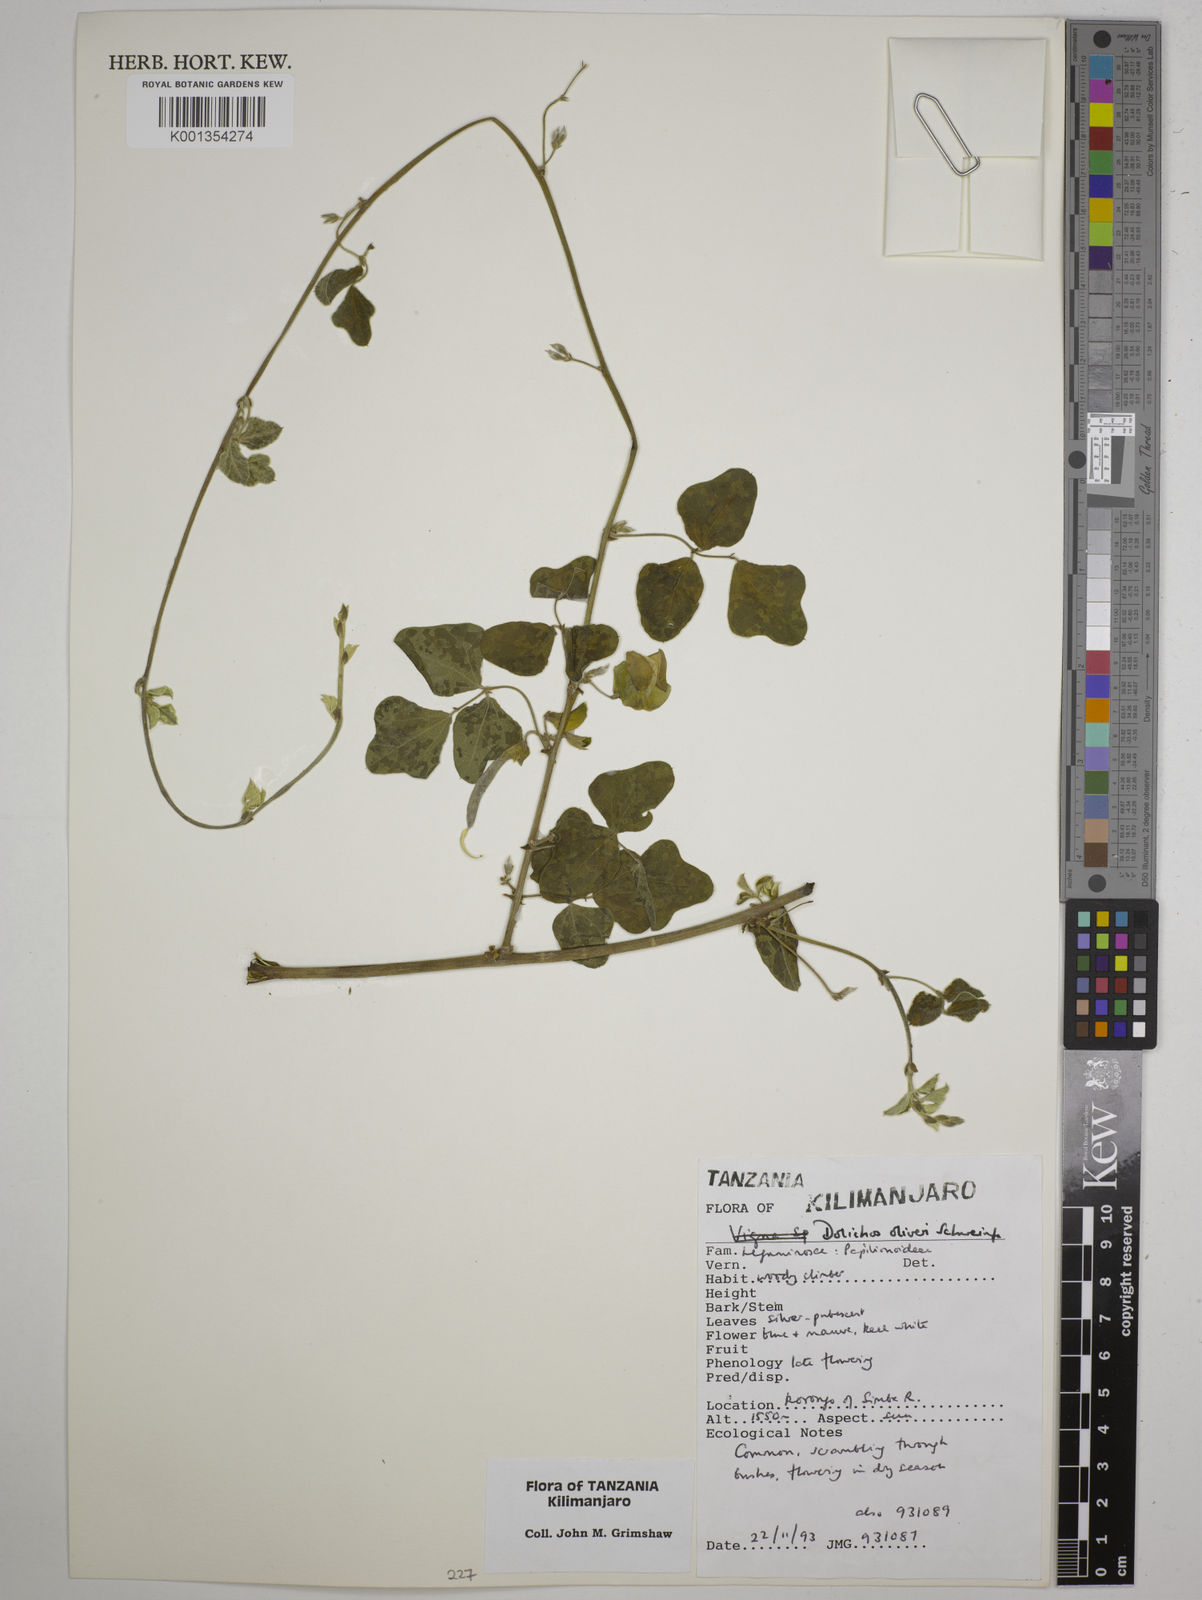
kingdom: Plantae
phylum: Tracheophyta
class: Magnoliopsida
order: Fabales
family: Fabaceae
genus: Dolichos
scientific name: Dolichos oliveri
